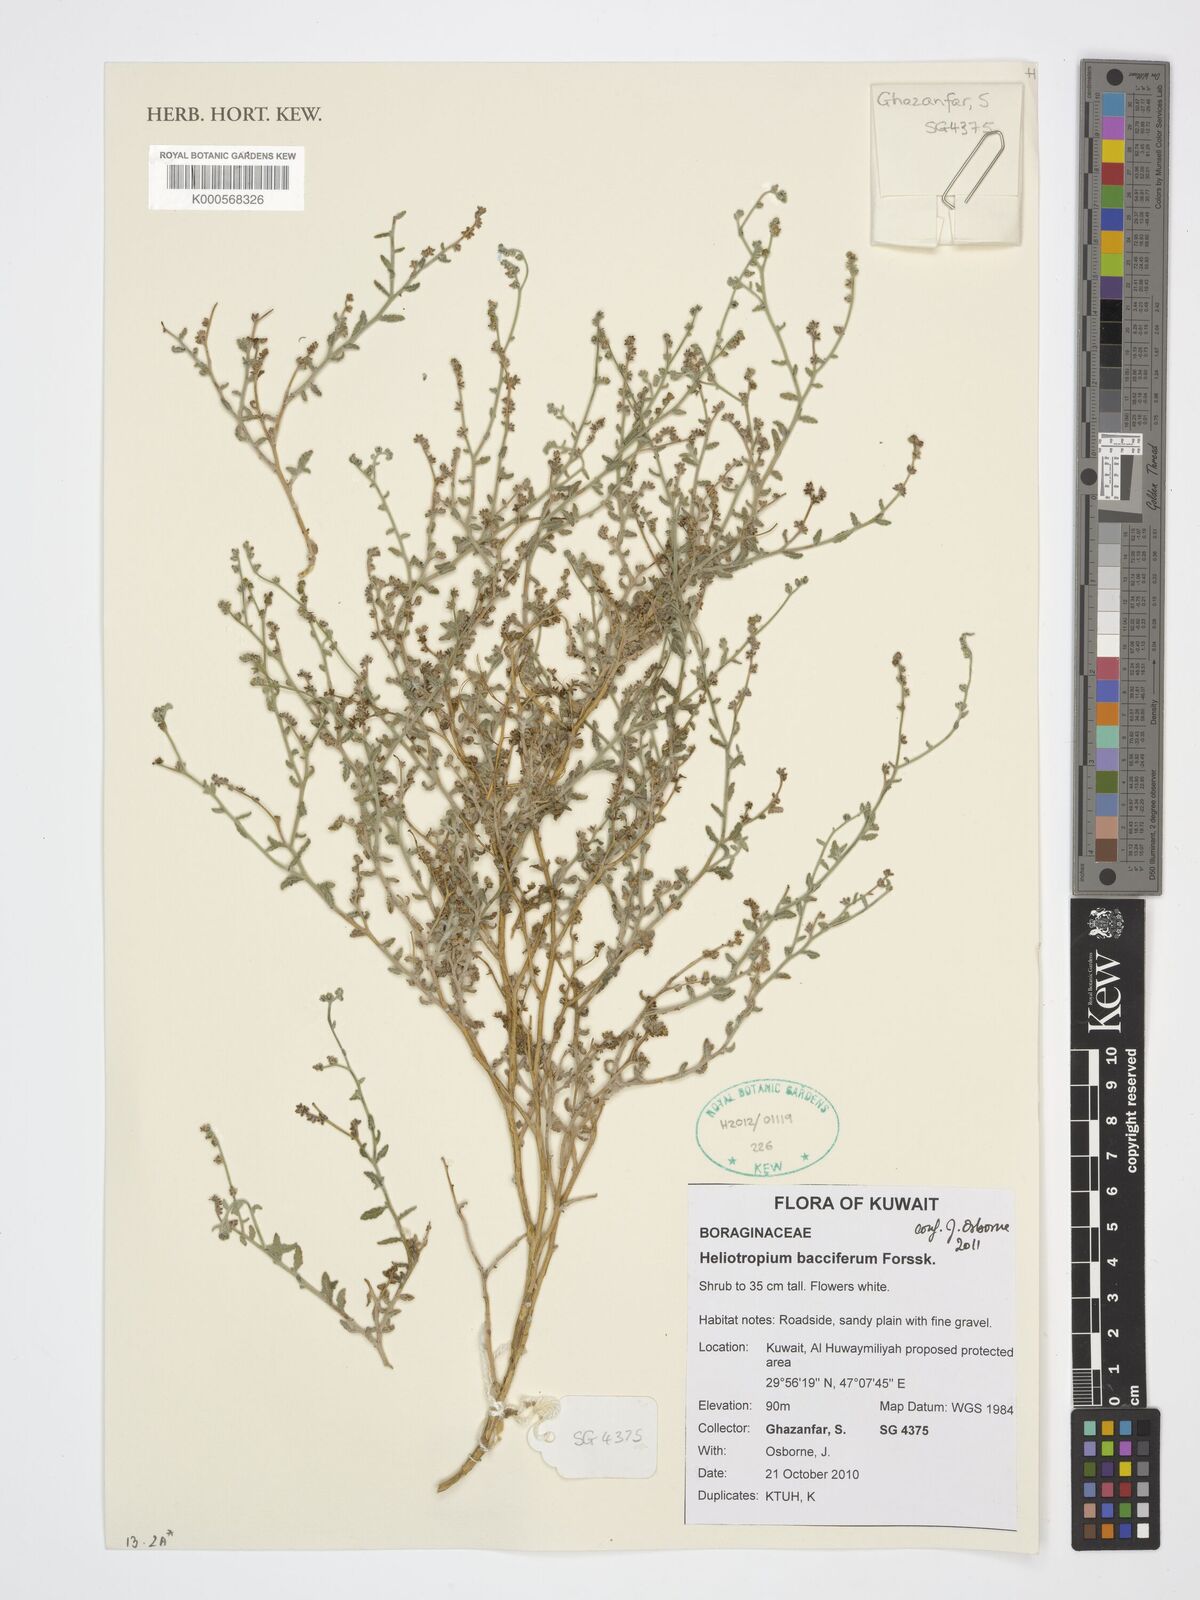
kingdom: Plantae
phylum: Tracheophyta
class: Magnoliopsida
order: Boraginales
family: Heliotropiaceae
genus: Heliotropium
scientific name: Heliotropium bacciferum
